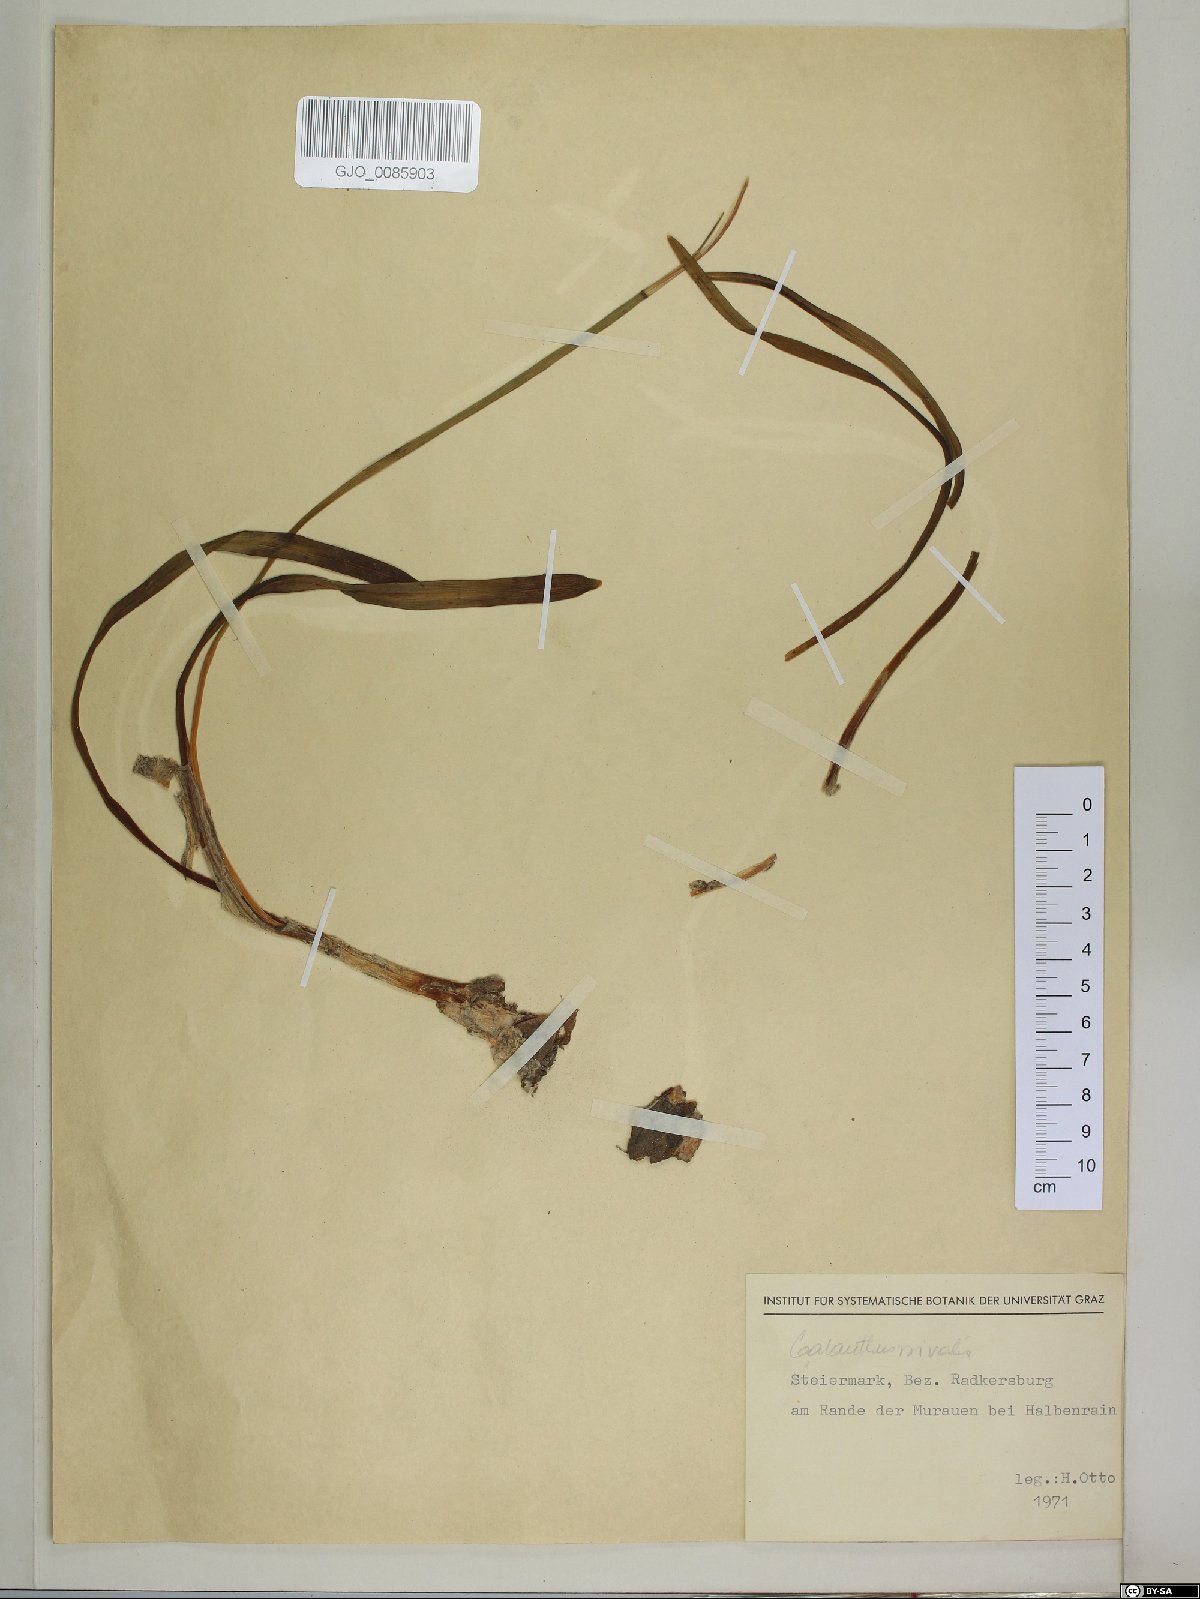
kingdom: Plantae
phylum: Tracheophyta
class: Liliopsida
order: Asparagales
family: Amaryllidaceae
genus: Galanthus
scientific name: Galanthus nivalis
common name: Snowdrop
